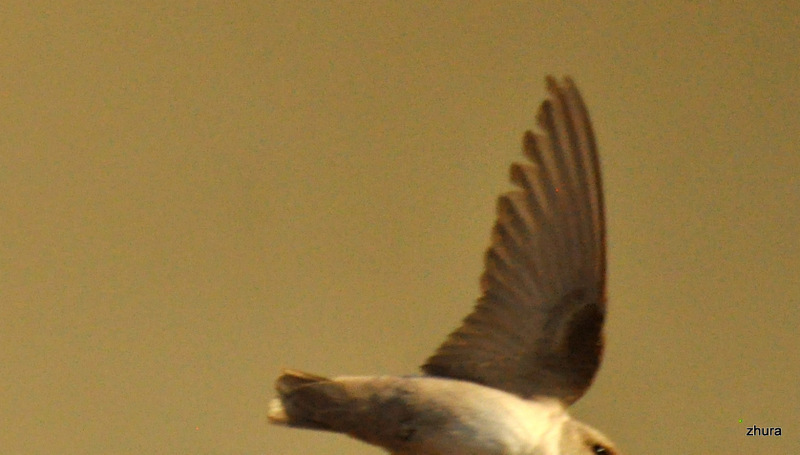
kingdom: Animalia
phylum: Chordata
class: Aves
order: Passeriformes
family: Hirundinidae
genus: Ptyonoprogne
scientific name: Ptyonoprogne rupestris
